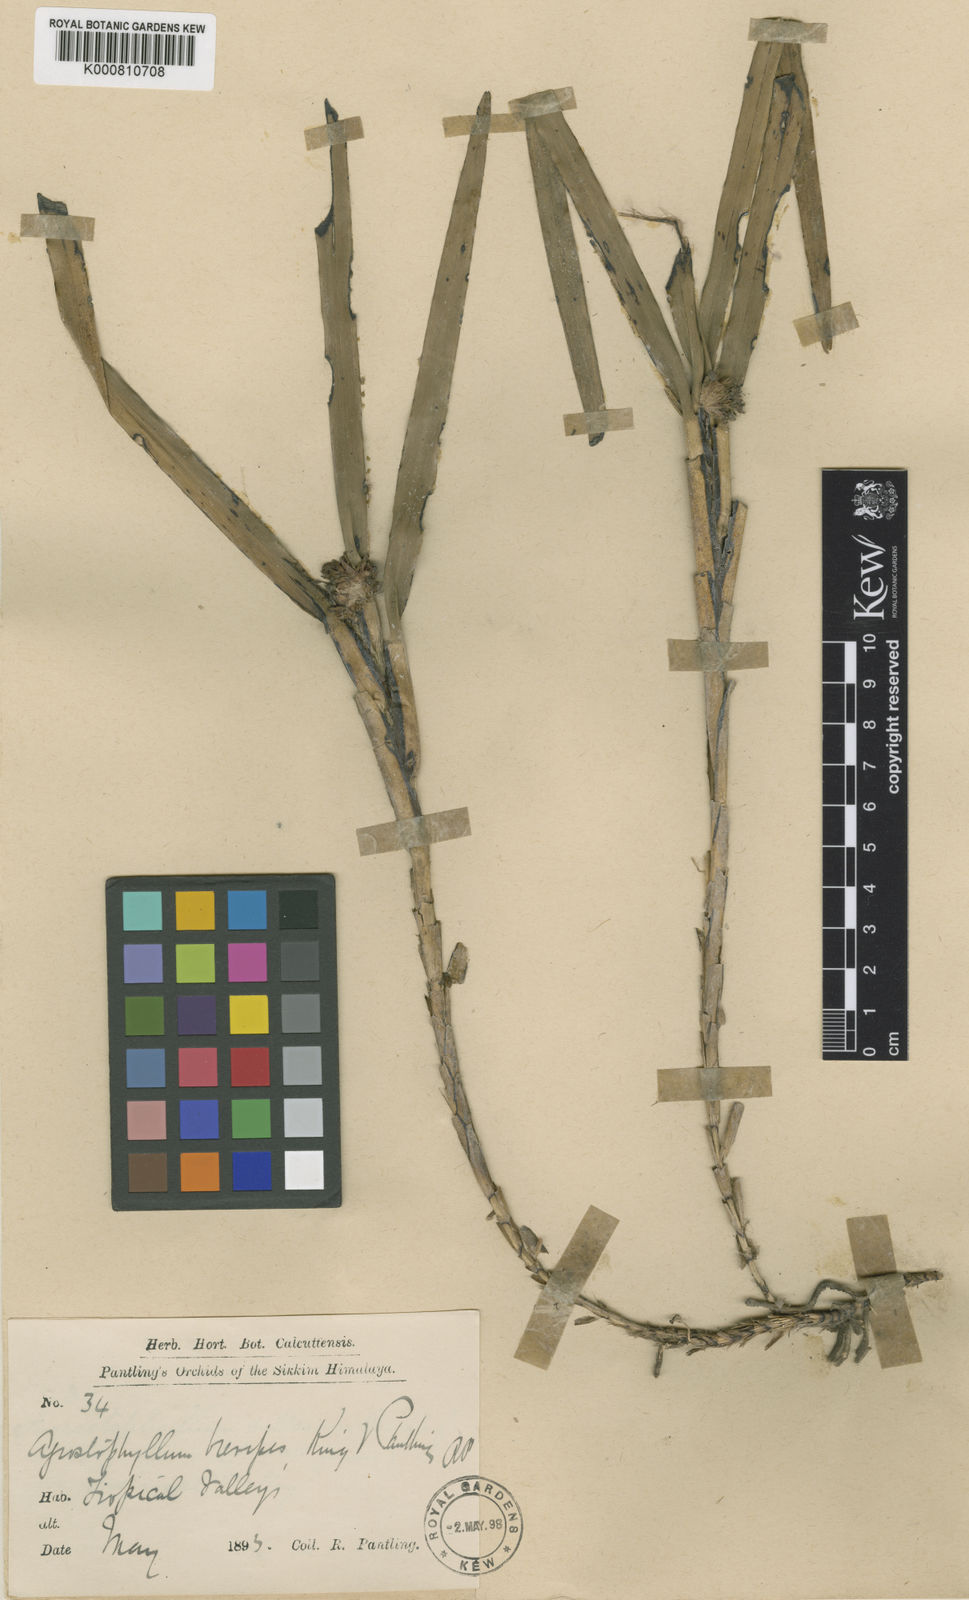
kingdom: Plantae
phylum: Tracheophyta
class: Liliopsida
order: Asparagales
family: Orchidaceae
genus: Agrostophyllum
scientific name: Agrostophyllum brevipes
